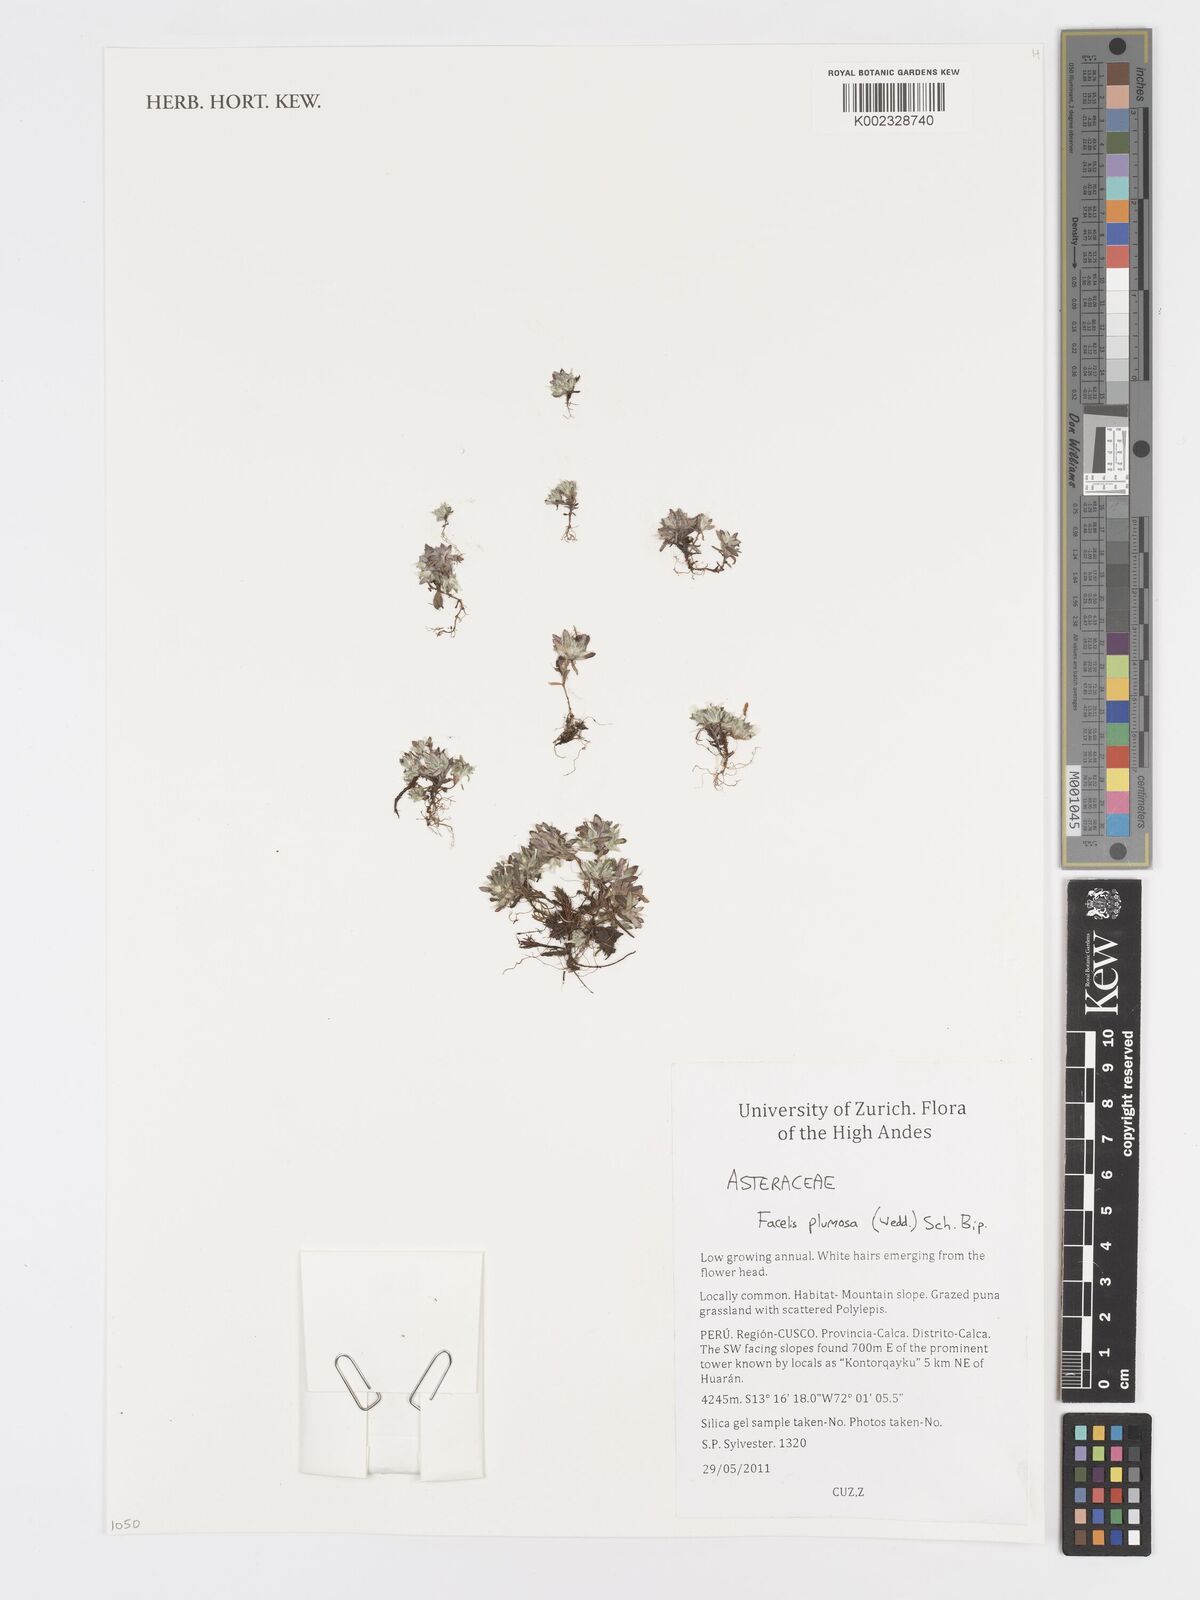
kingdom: Plantae
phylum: Tracheophyta
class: Magnoliopsida
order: Asterales
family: Asteraceae
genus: Facelis
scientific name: Facelis plumosa
